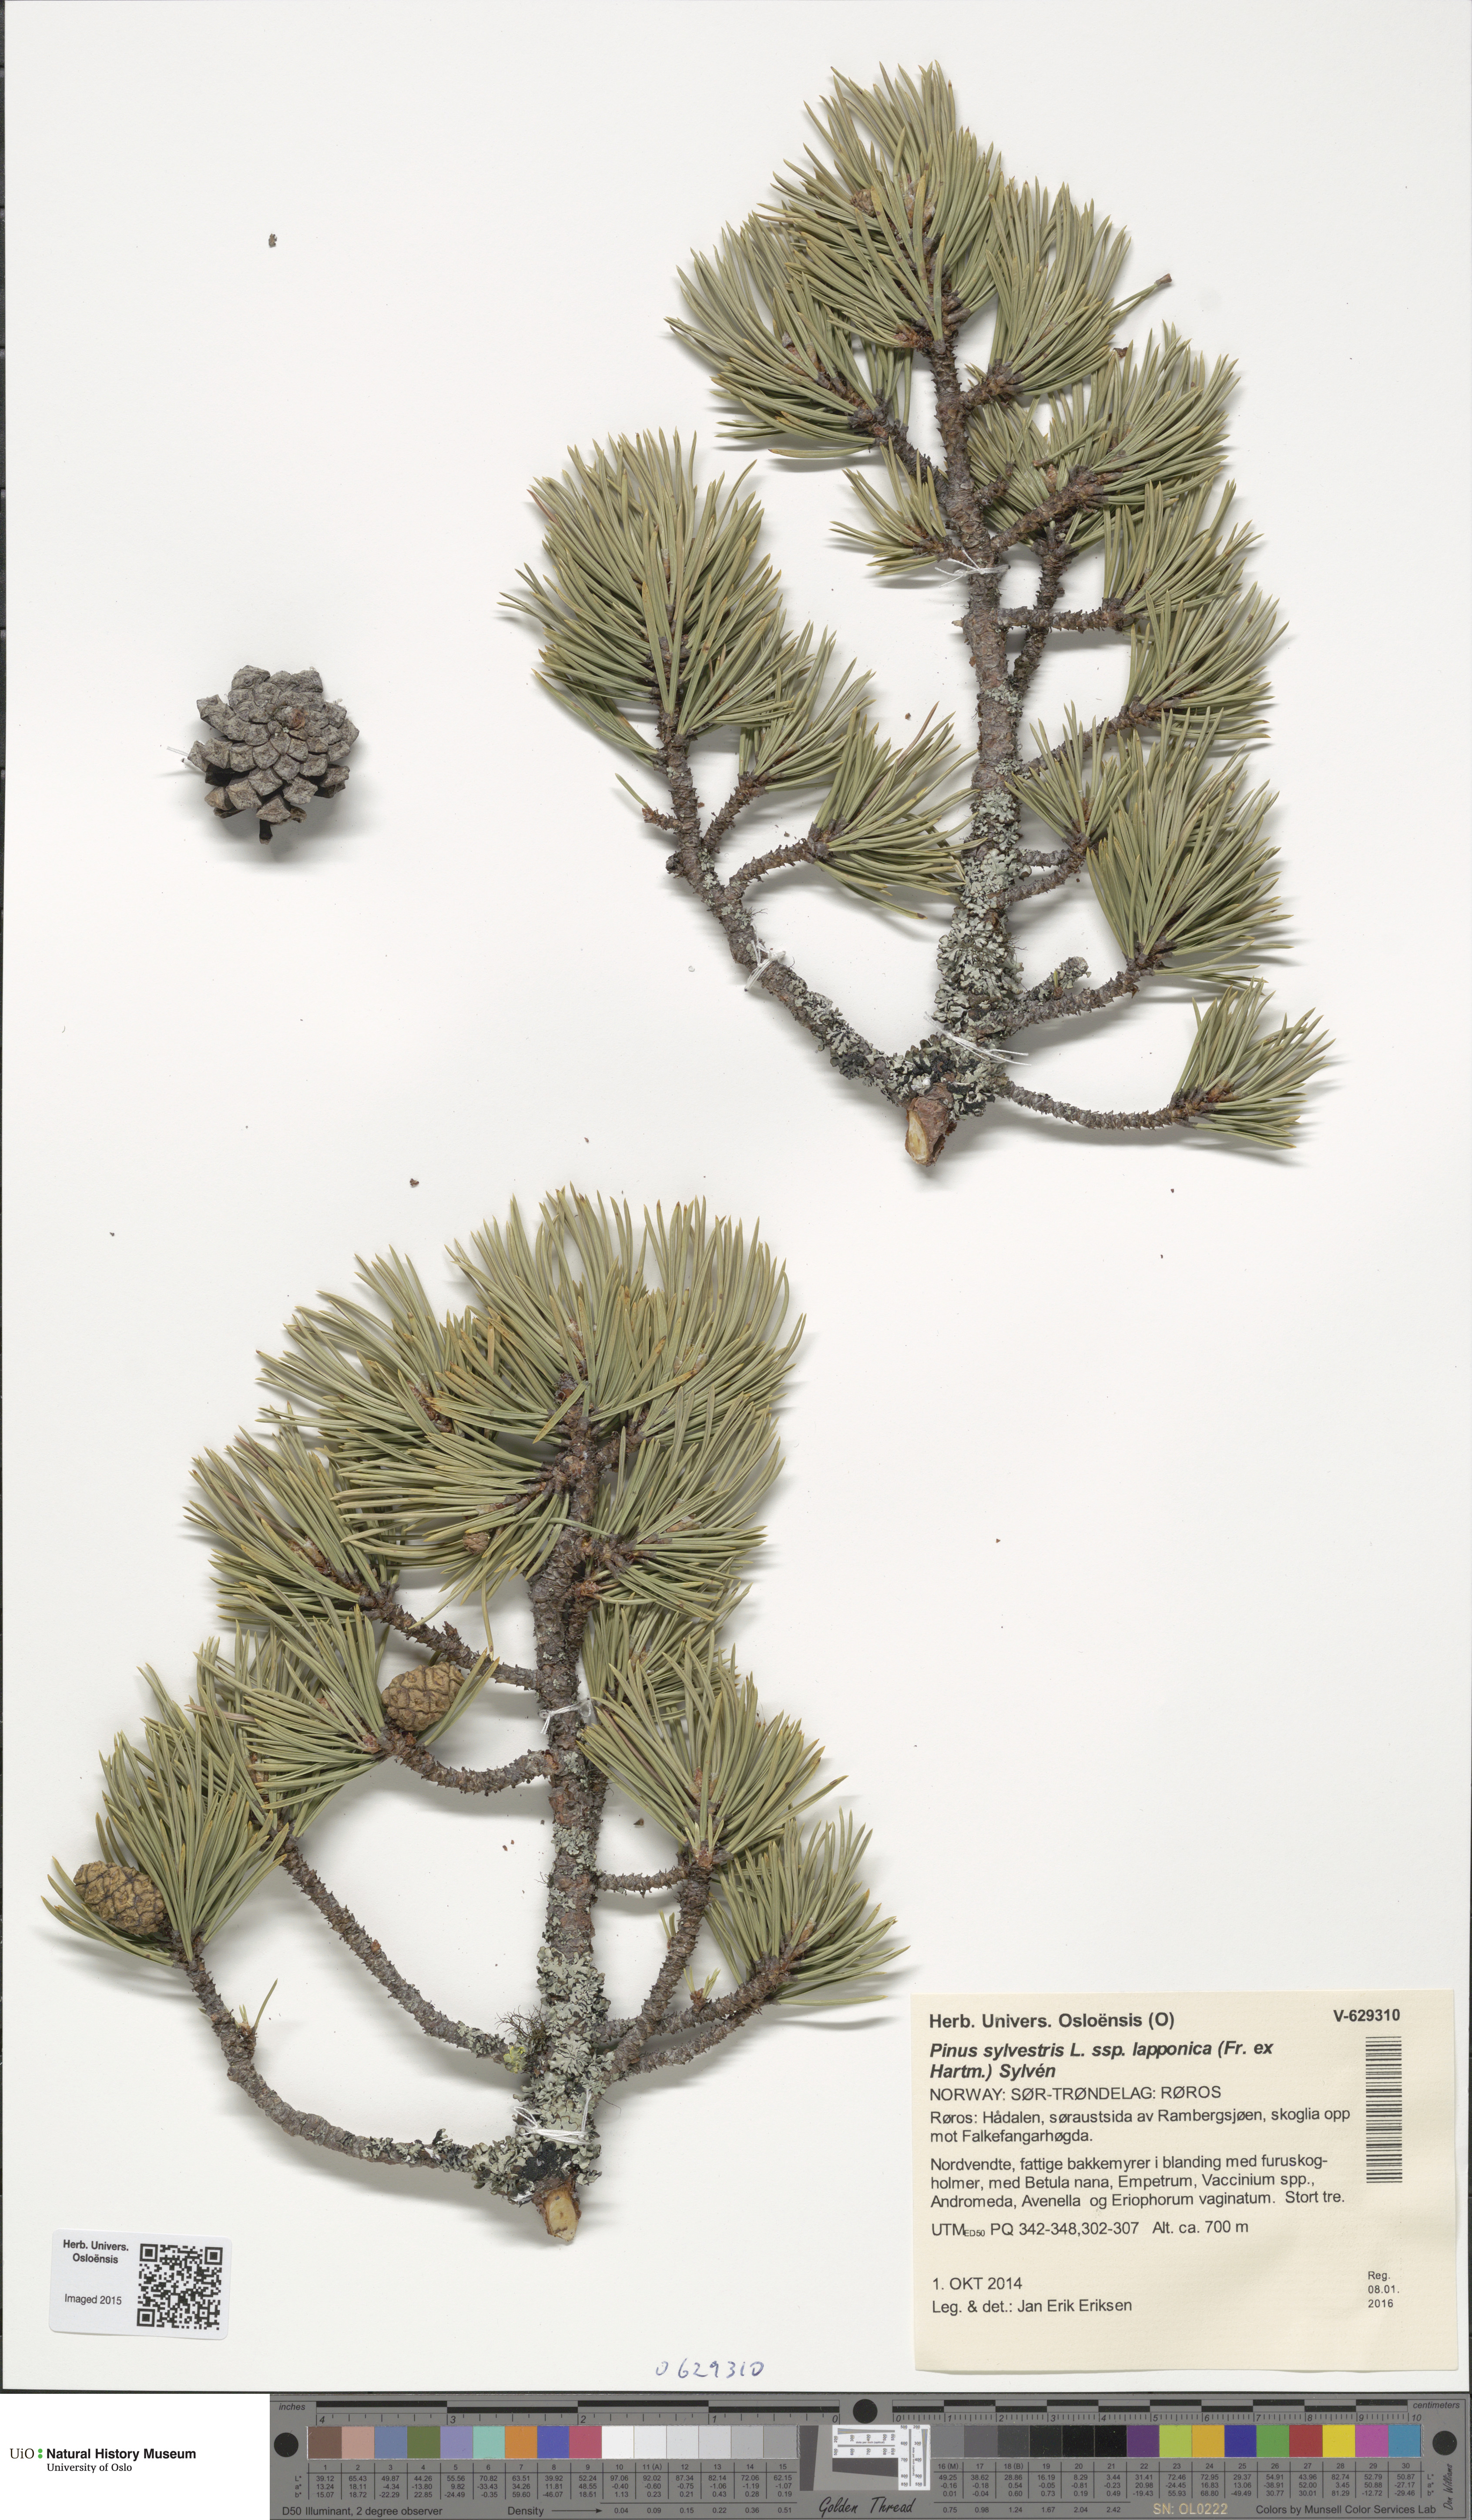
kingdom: Plantae
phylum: Tracheophyta
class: Pinopsida
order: Pinales
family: Pinaceae
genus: Pinus
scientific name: Pinus sylvestris
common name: Scots pine
